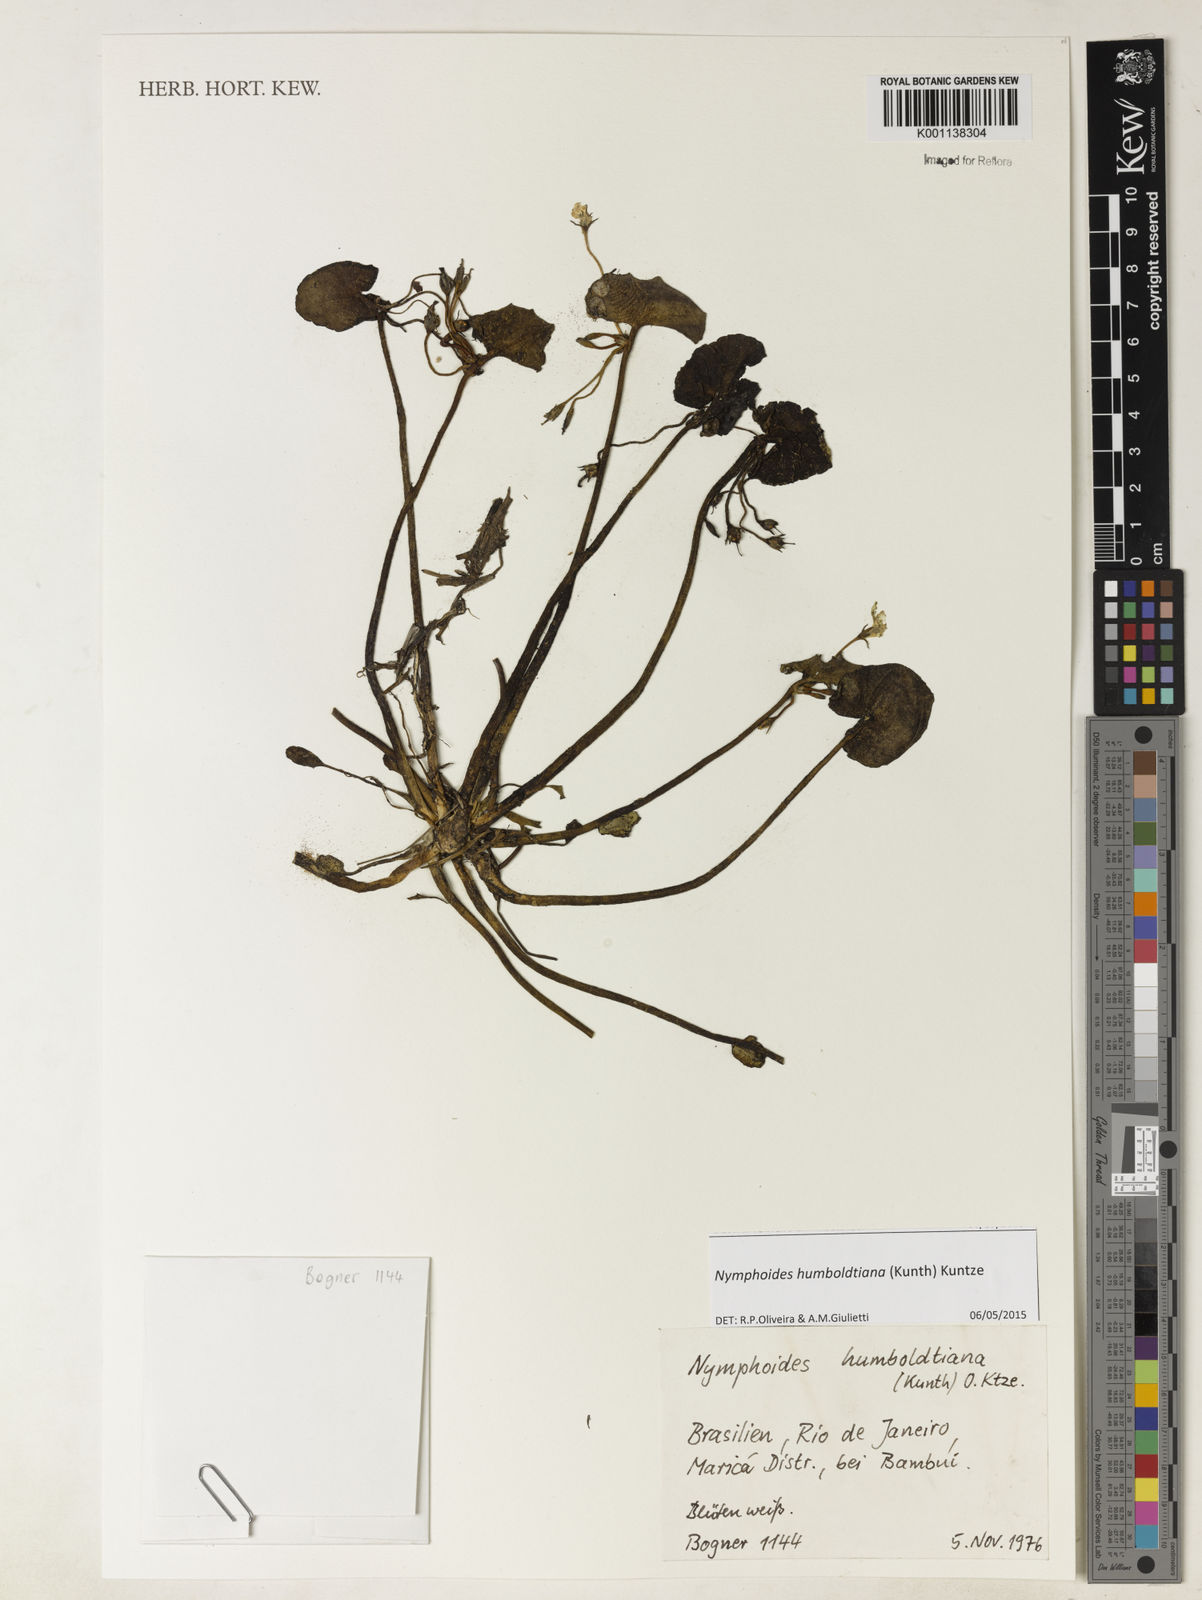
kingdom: Plantae
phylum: Tracheophyta
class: Magnoliopsida
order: Asterales
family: Menyanthaceae
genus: Nymphoides
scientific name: Nymphoides indica
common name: Water-snowflake
